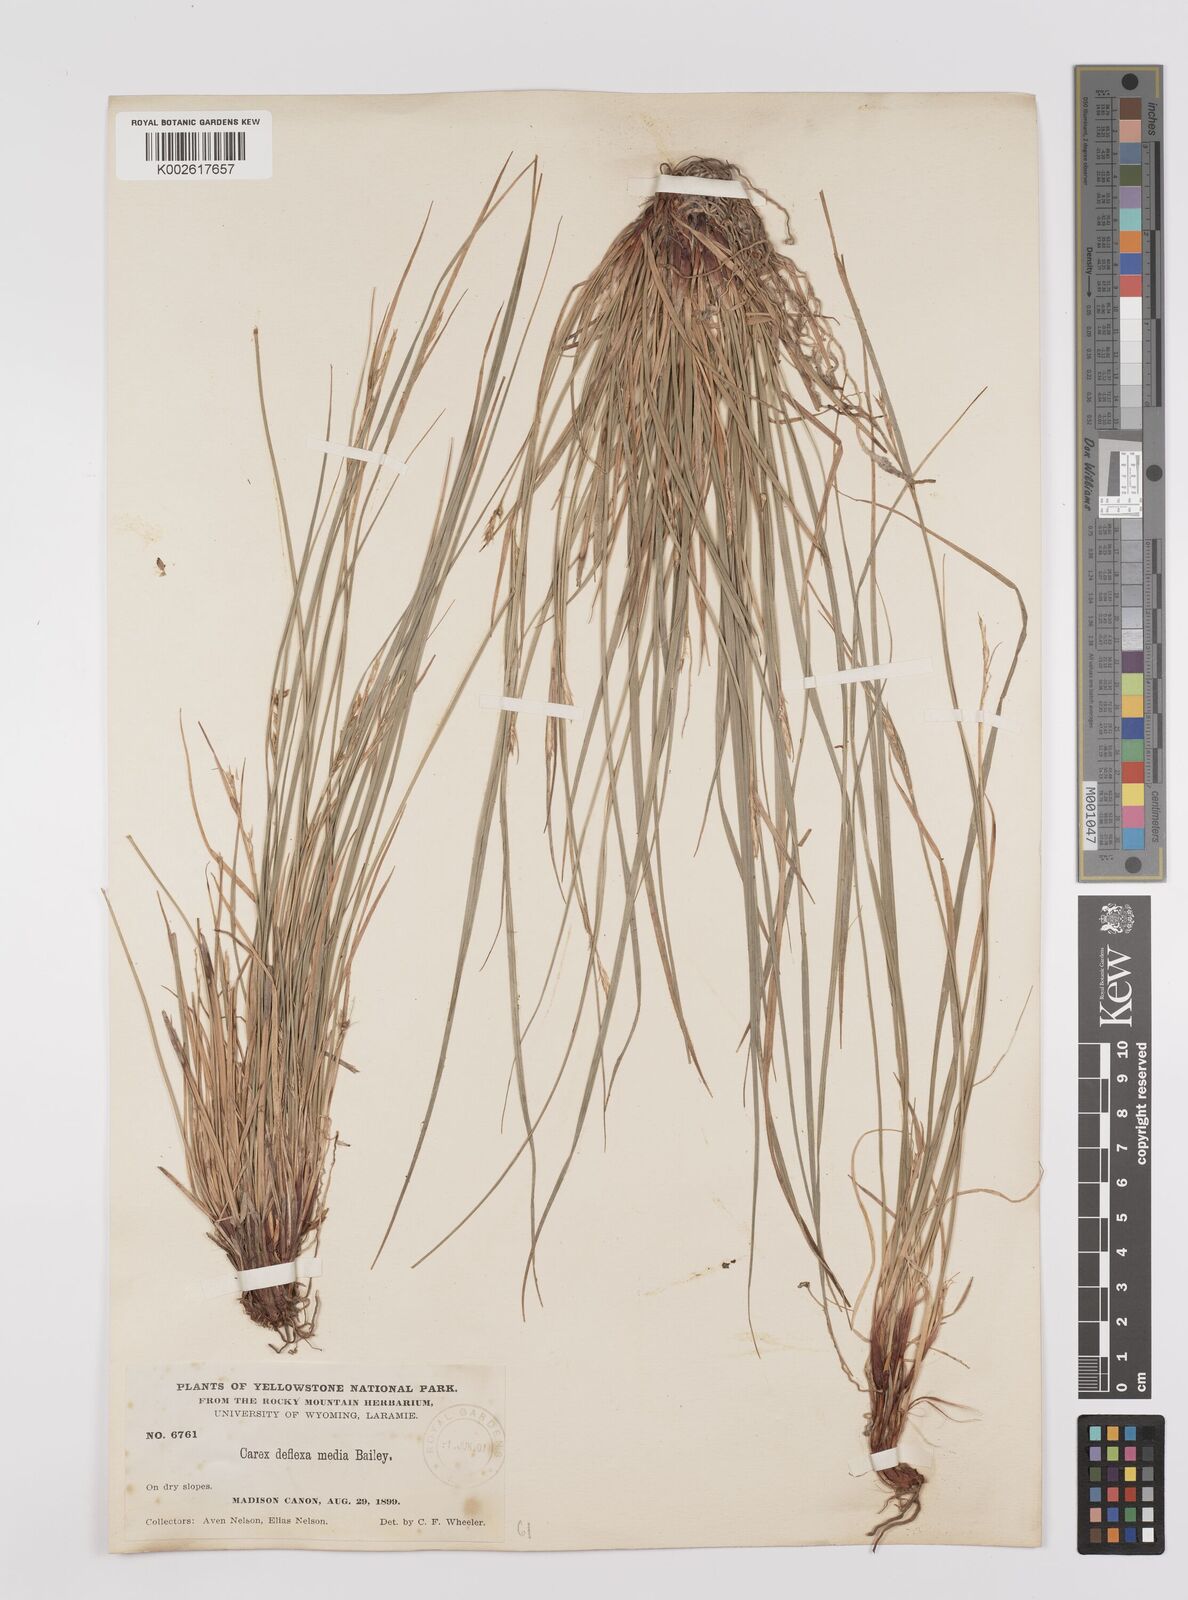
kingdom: Plantae
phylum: Tracheophyta
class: Liliopsida
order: Poales
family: Cyperaceae
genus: Carex
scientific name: Carex rossii
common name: Ross' sedge
